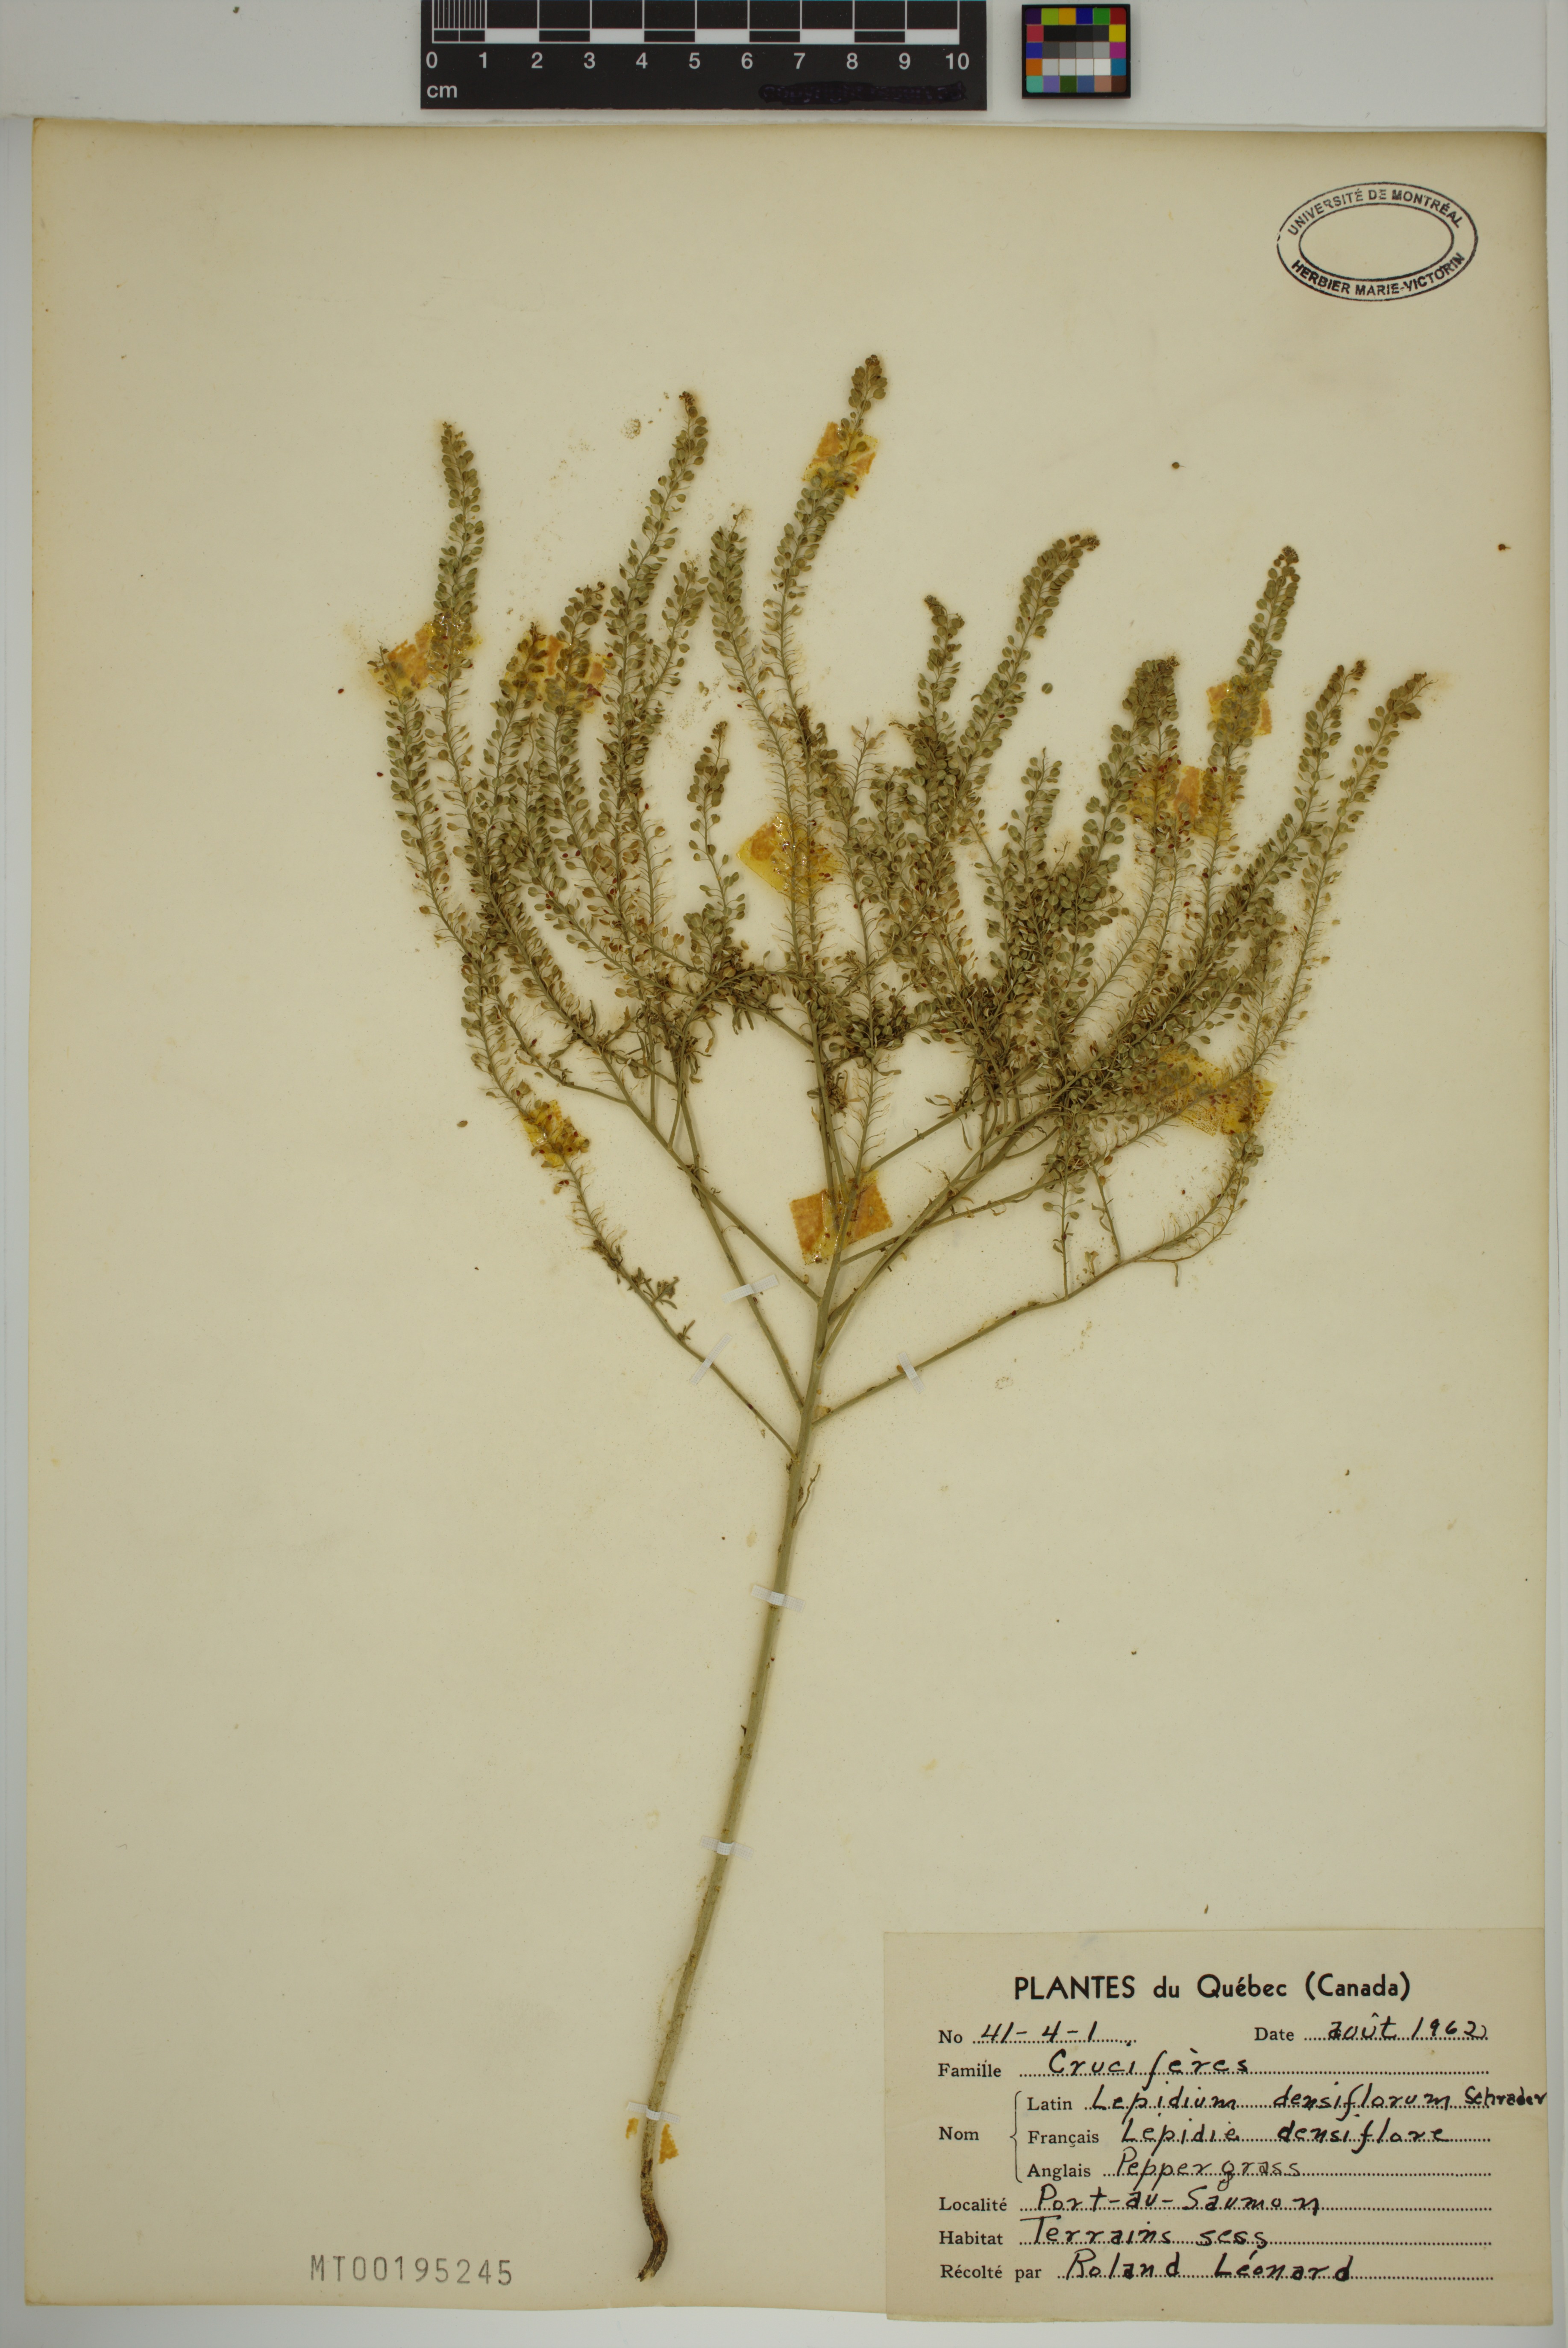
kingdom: Plantae
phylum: Tracheophyta
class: Magnoliopsida
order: Brassicales
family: Brassicaceae
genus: Lepidium
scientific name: Lepidium densiflorum
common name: Miner's pepperwort
